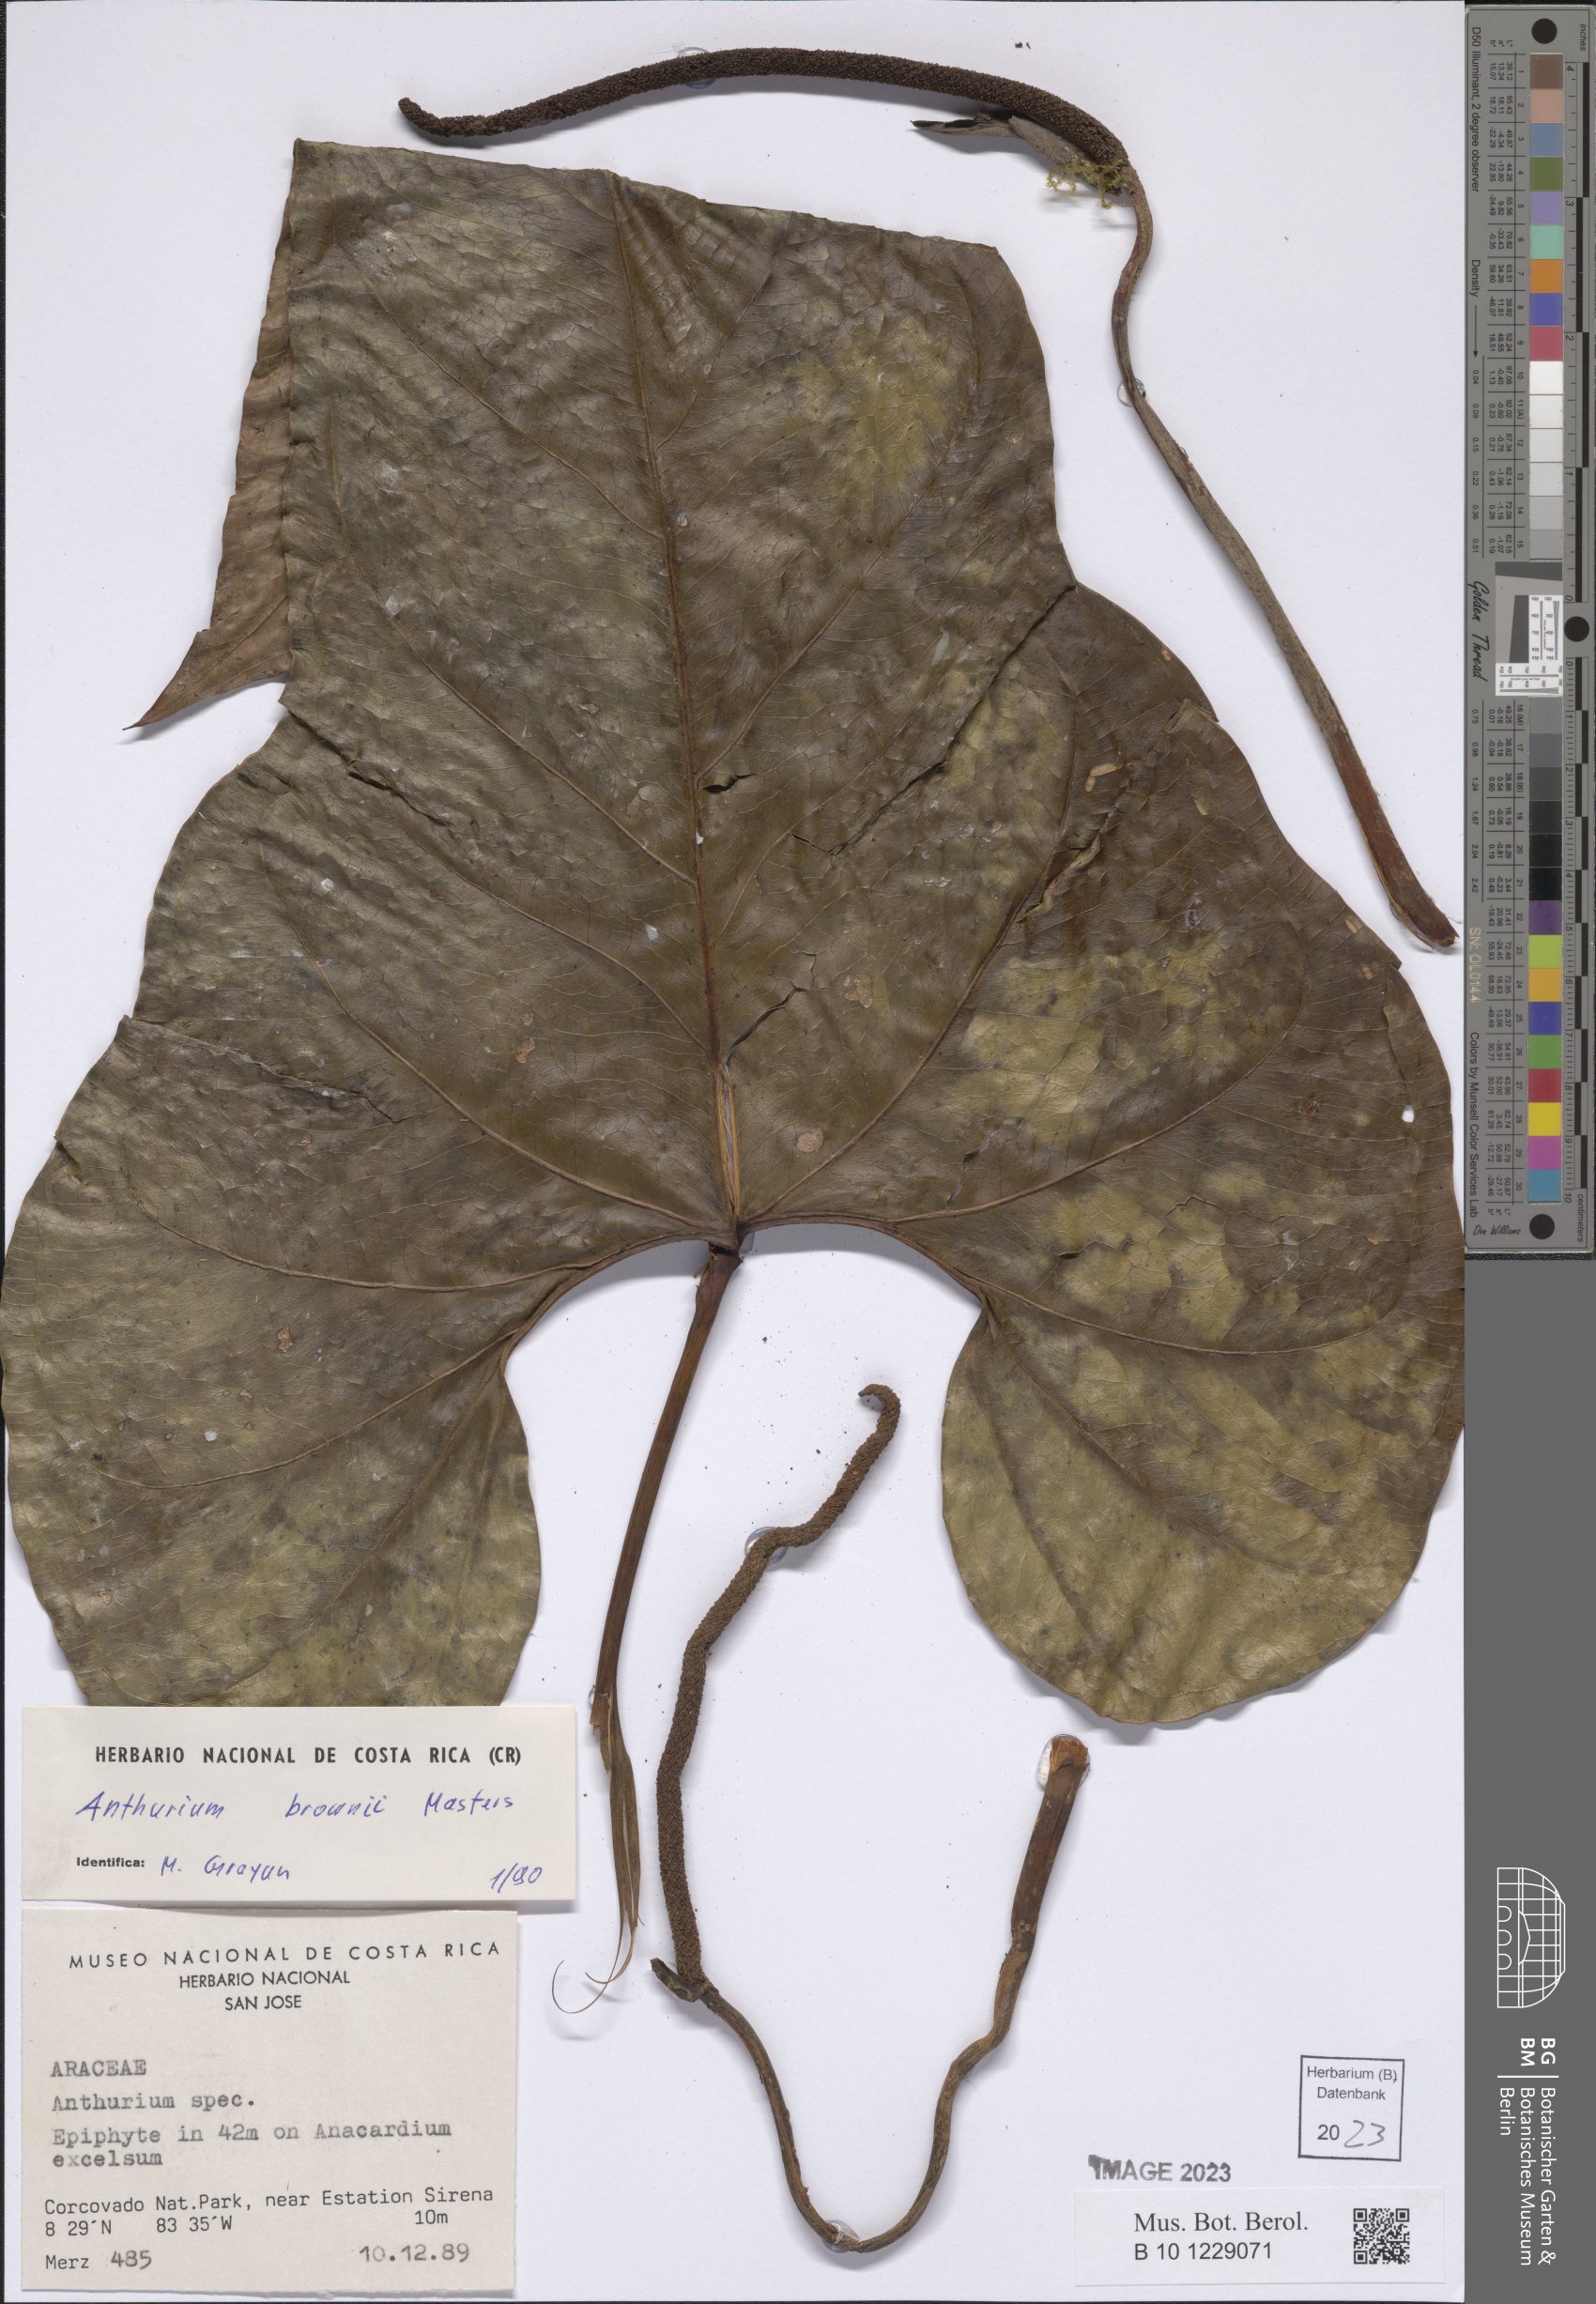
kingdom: Plantae
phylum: Tracheophyta
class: Liliopsida
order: Alismatales
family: Araceae
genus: Anthurium
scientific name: Anthurium brownii
